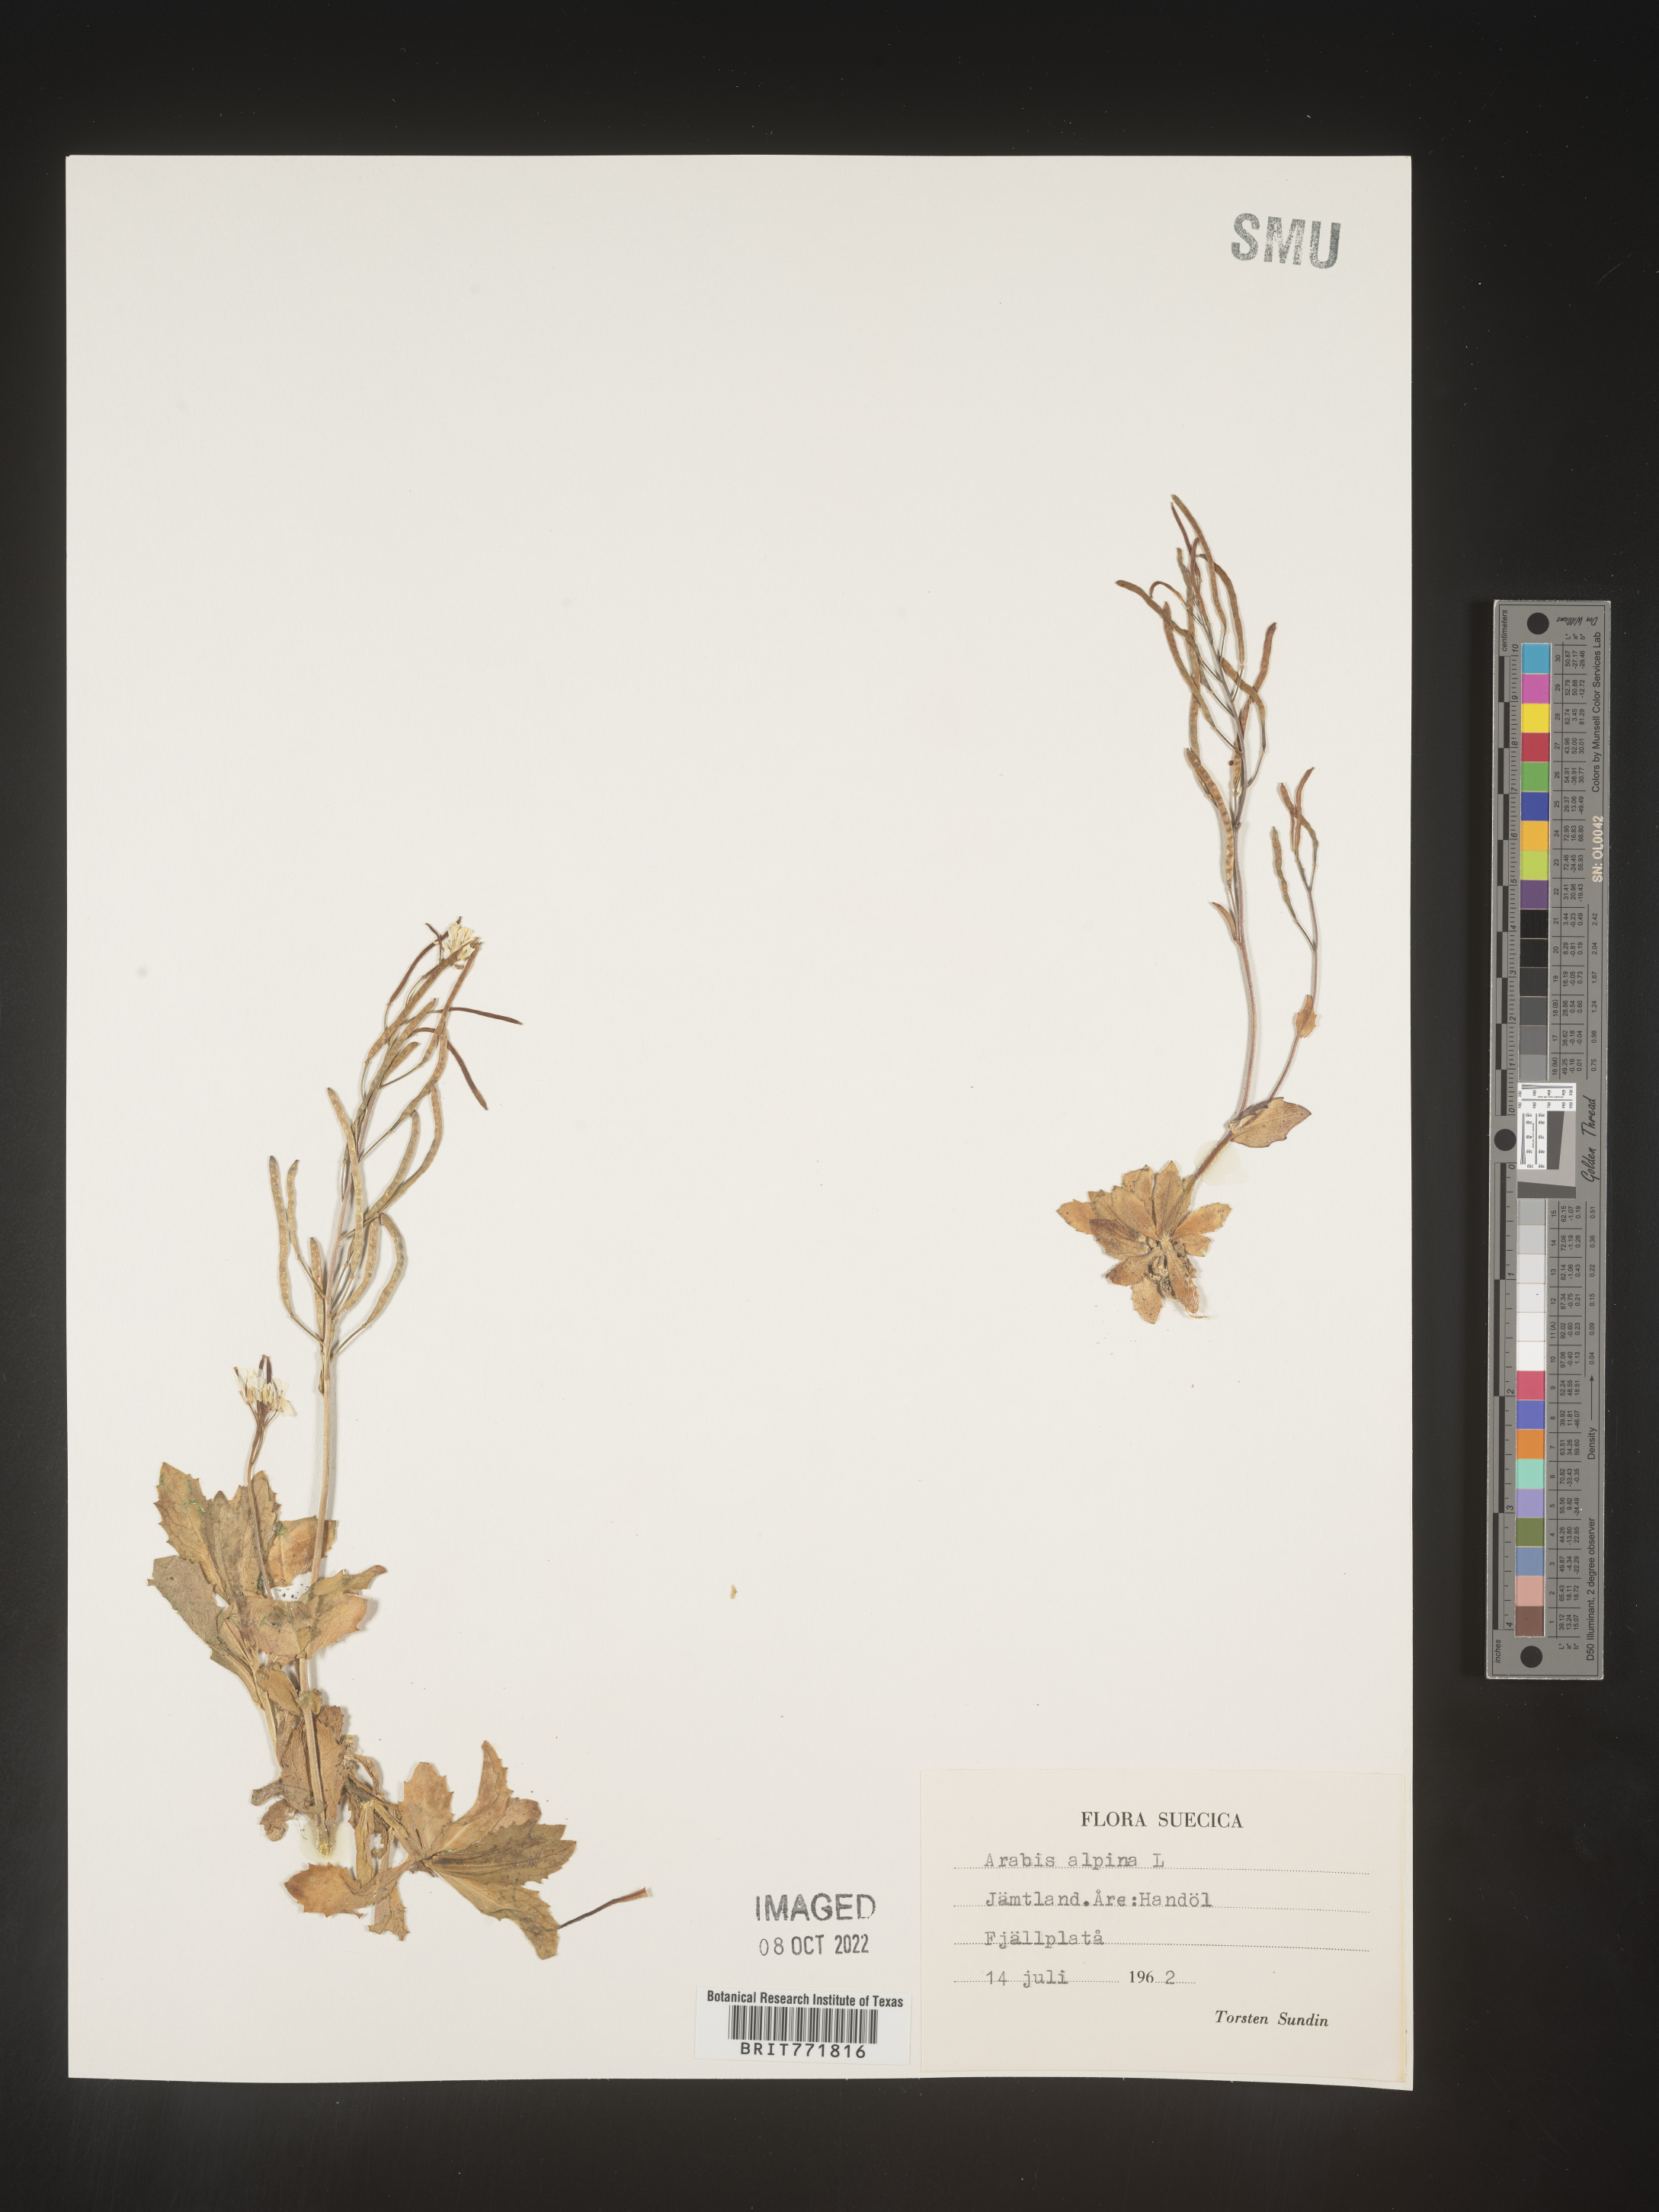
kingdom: Plantae
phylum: Tracheophyta
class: Magnoliopsida
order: Brassicales
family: Brassicaceae
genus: Arabis
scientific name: Arabis
